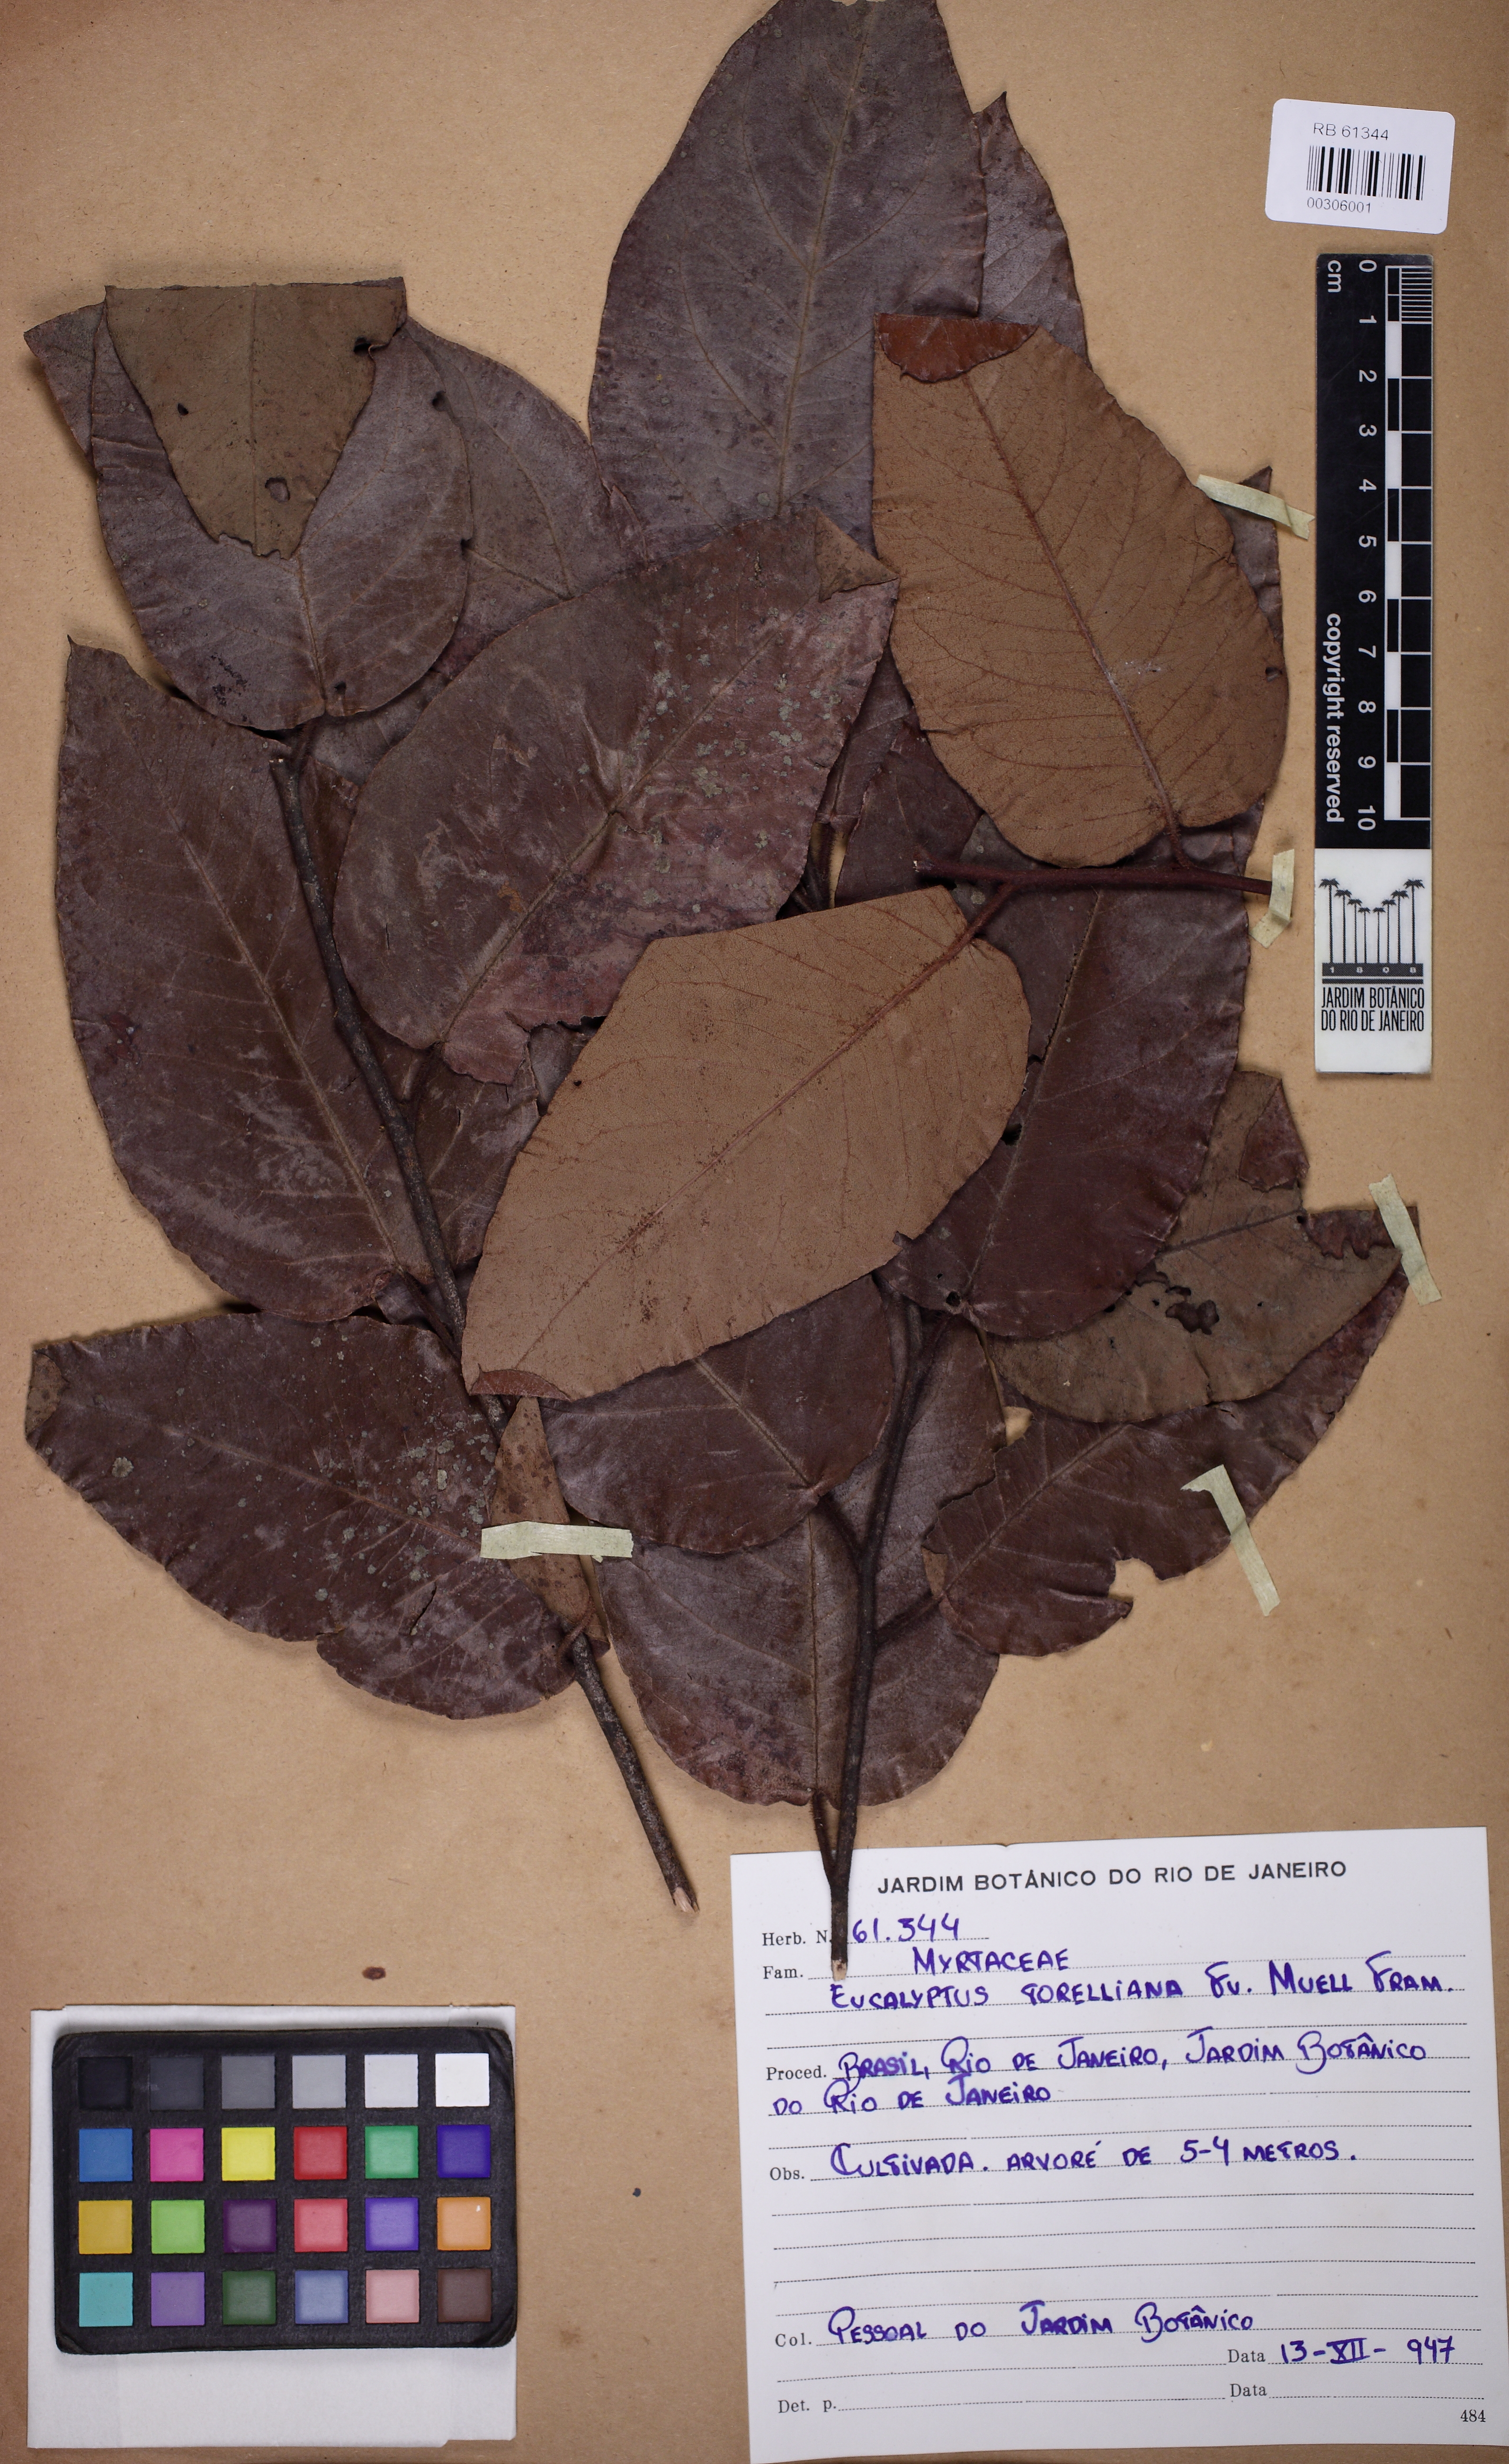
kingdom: Plantae
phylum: Tracheophyta
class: Magnoliopsida
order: Myrtales
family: Myrtaceae
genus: Corymbia
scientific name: Corymbia torelliana
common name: Cadaghi
